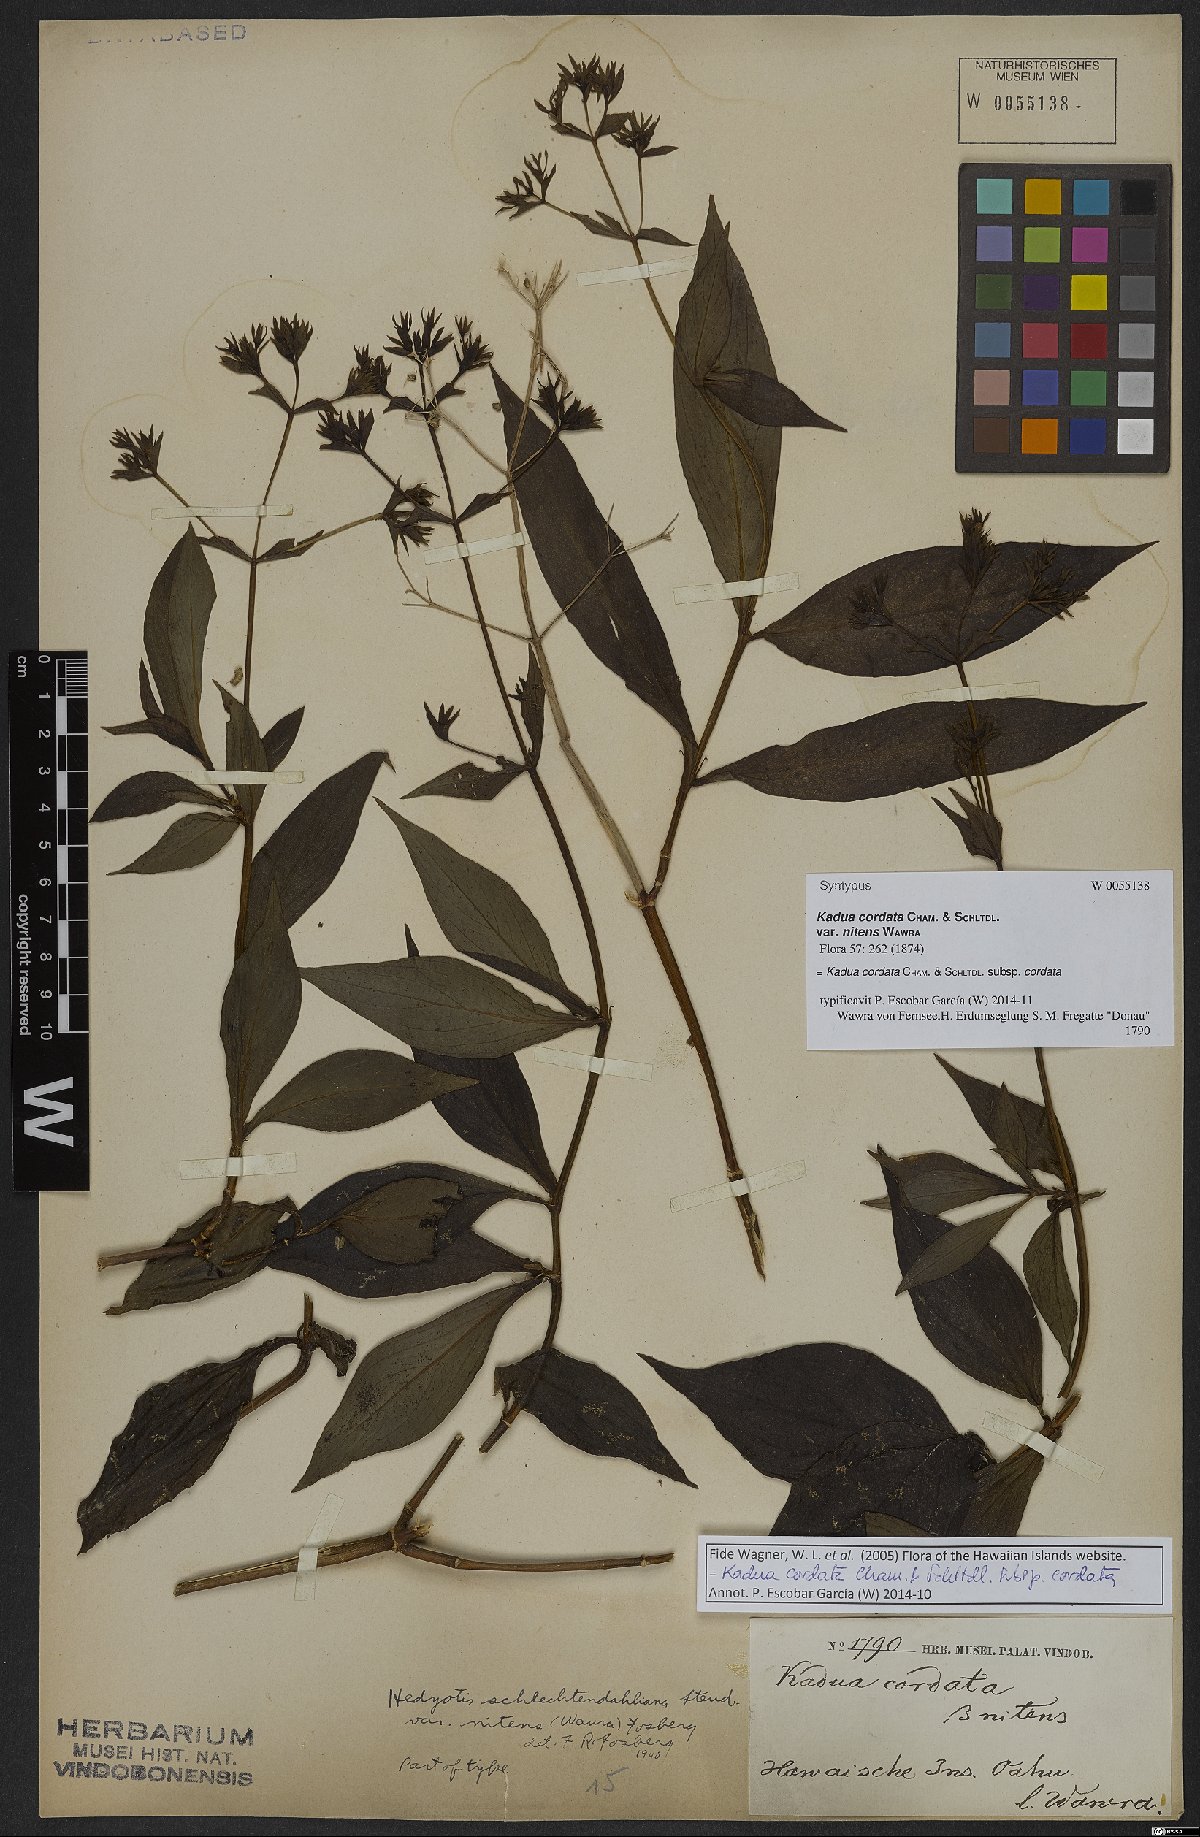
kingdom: Plantae
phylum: Tracheophyta
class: Magnoliopsida
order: Gentianales
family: Rubiaceae
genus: Kadua
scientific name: Kadua cordata
